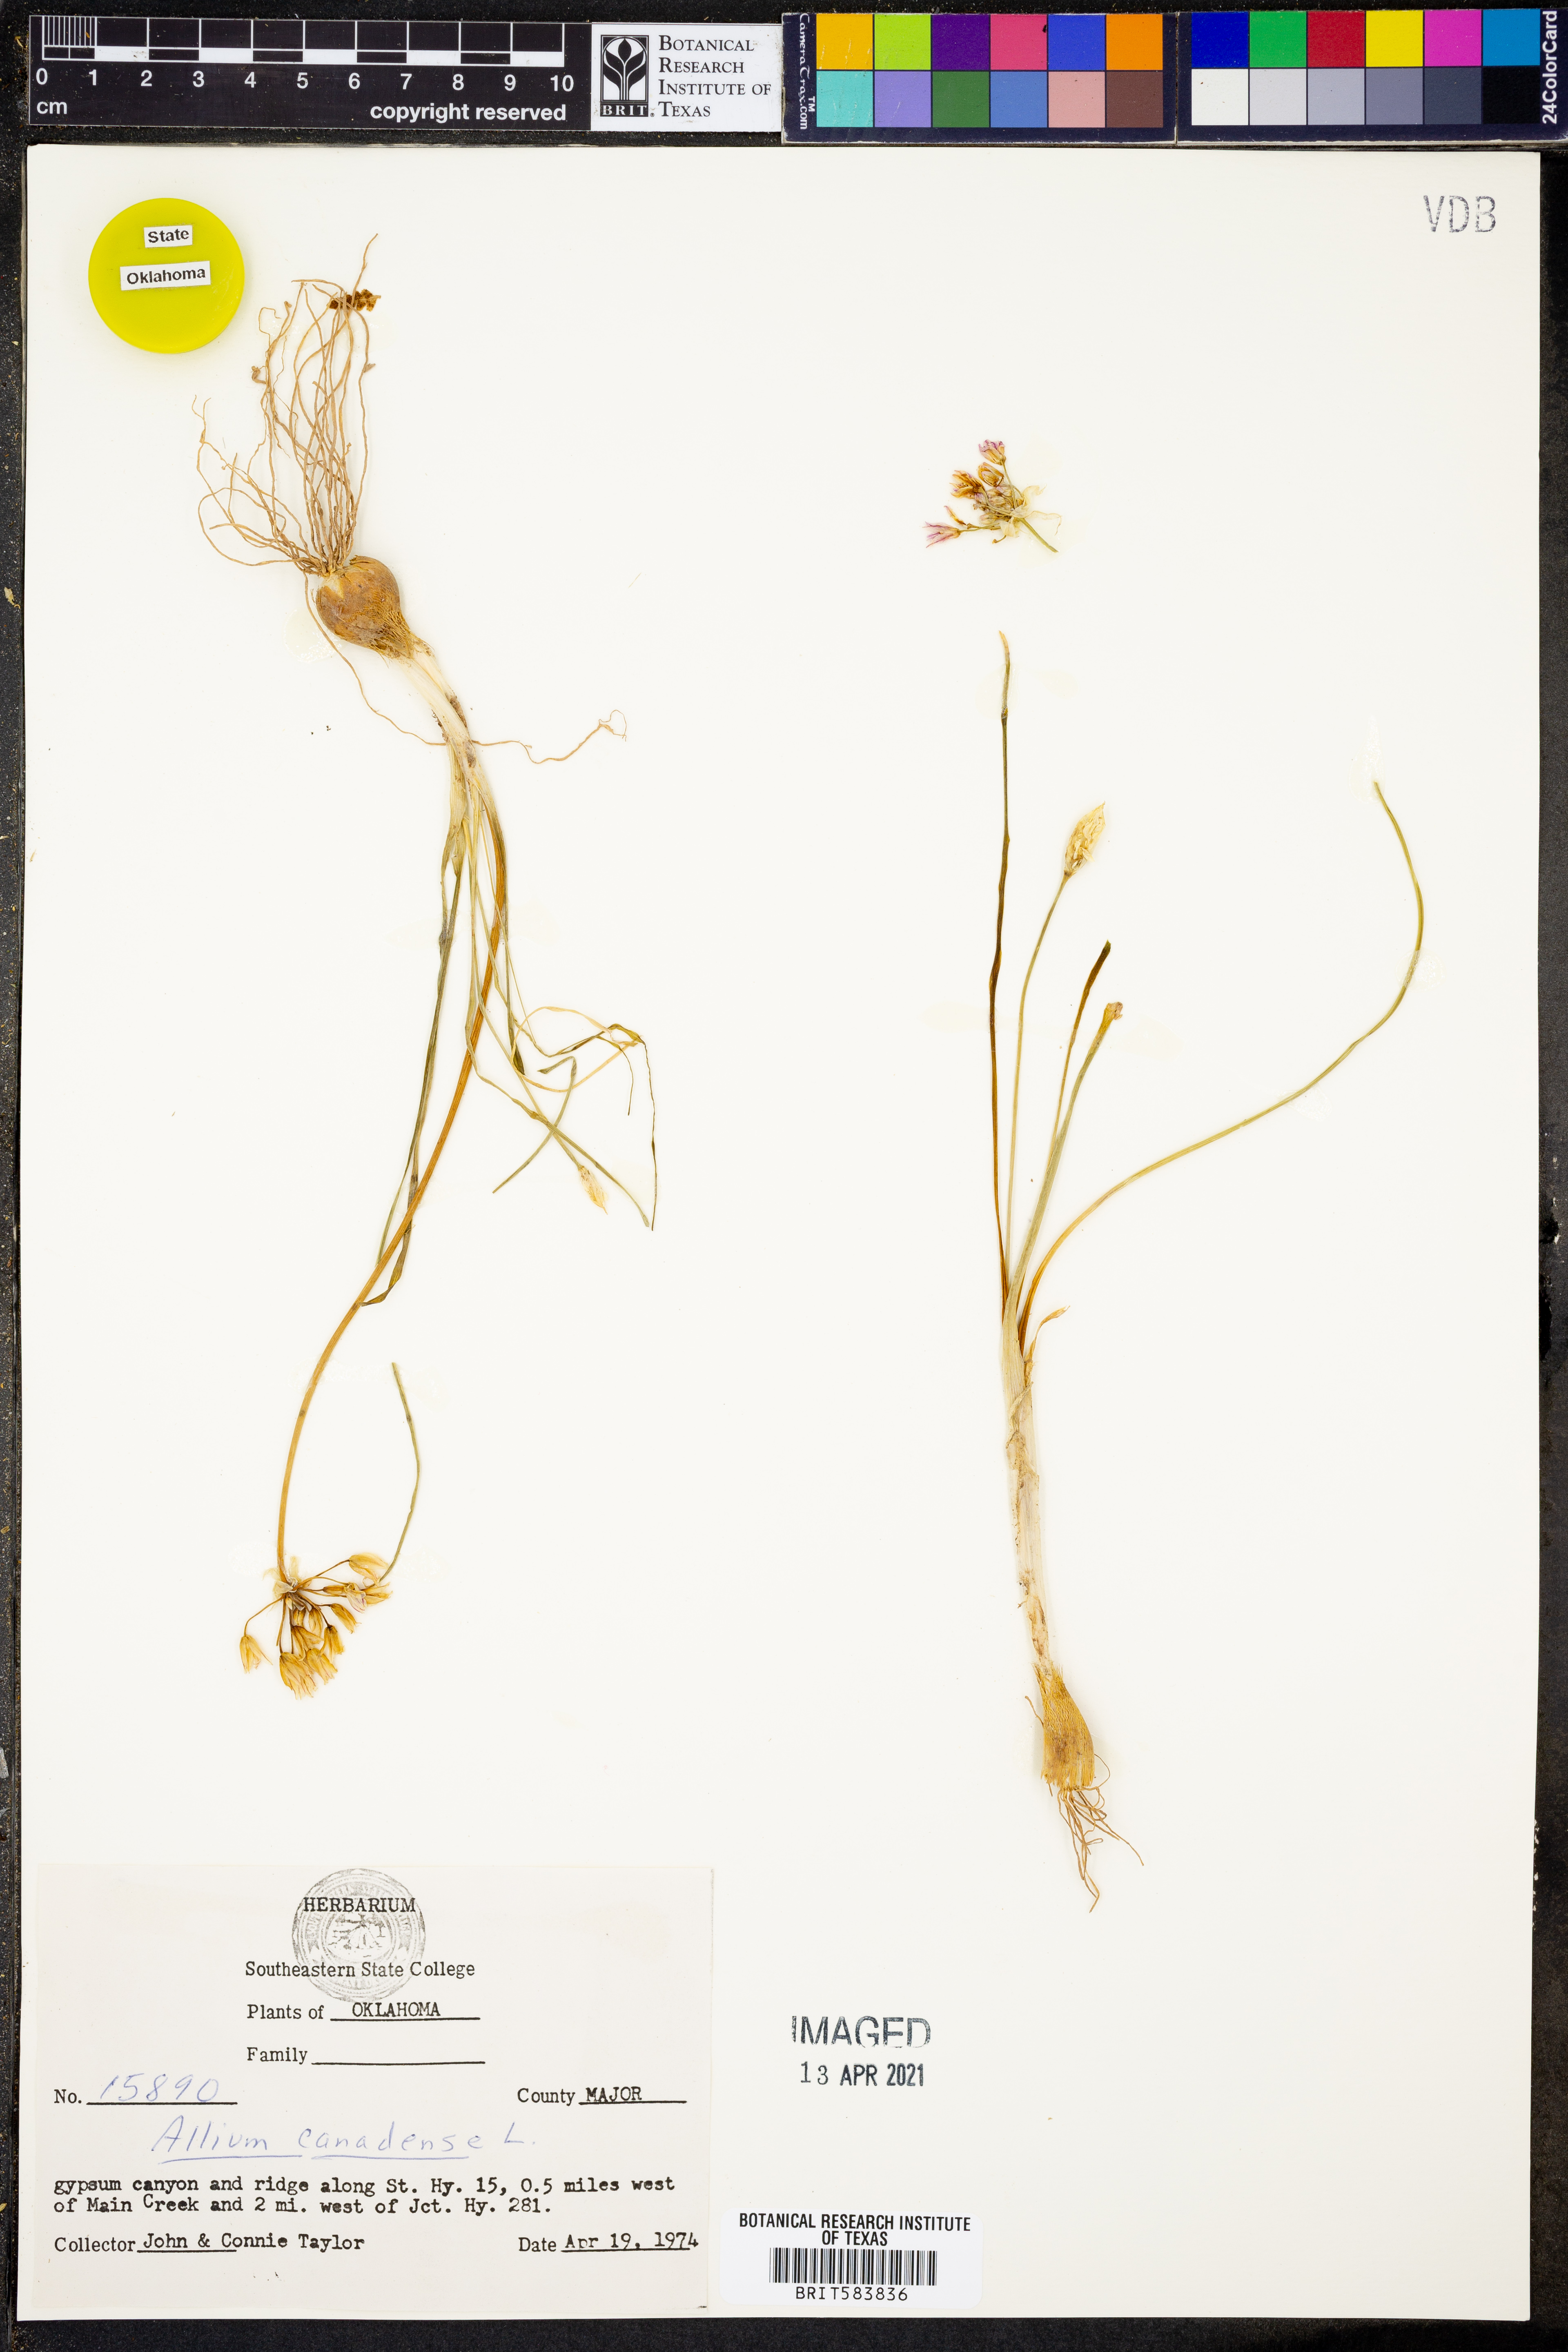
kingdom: Plantae
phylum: Tracheophyta
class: Liliopsida
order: Asparagales
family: Amaryllidaceae
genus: Allium
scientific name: Allium canadense
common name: Meadow garlic
